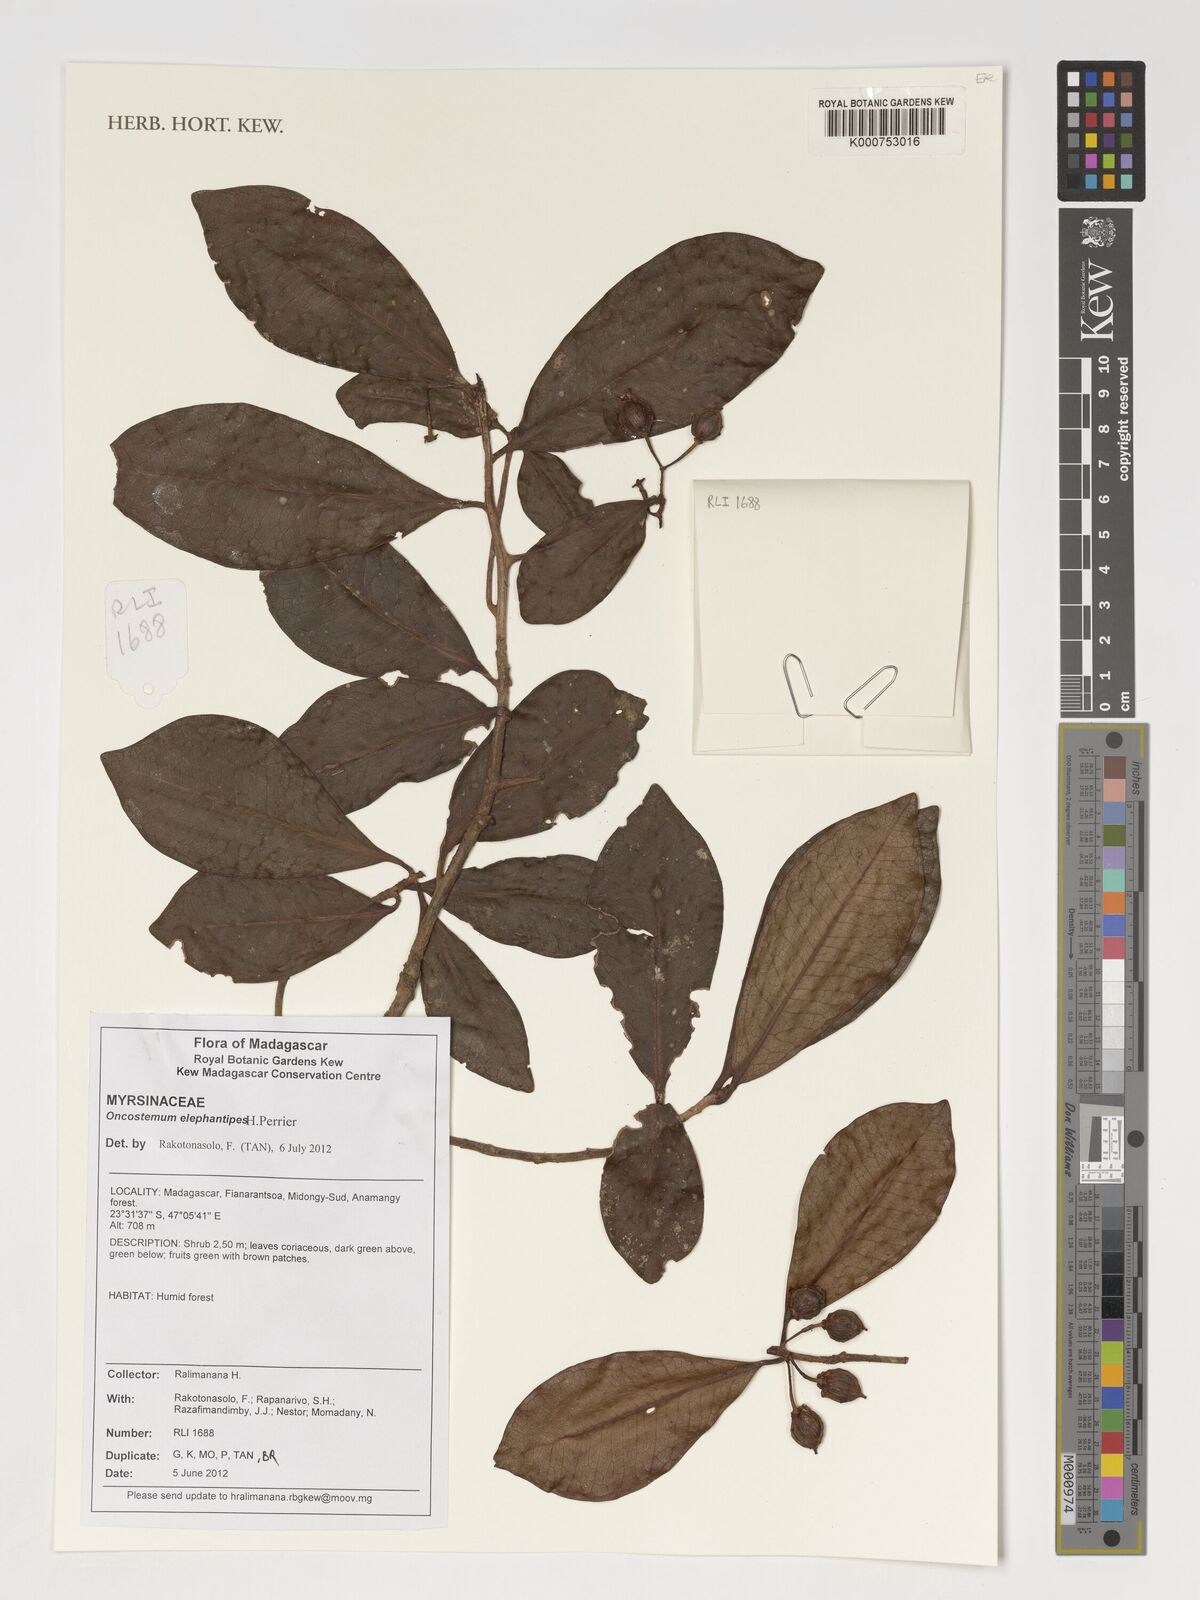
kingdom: Plantae
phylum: Tracheophyta
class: Magnoliopsida
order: Ericales
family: Primulaceae
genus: Oncostemum
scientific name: Oncostemum elephantipes
